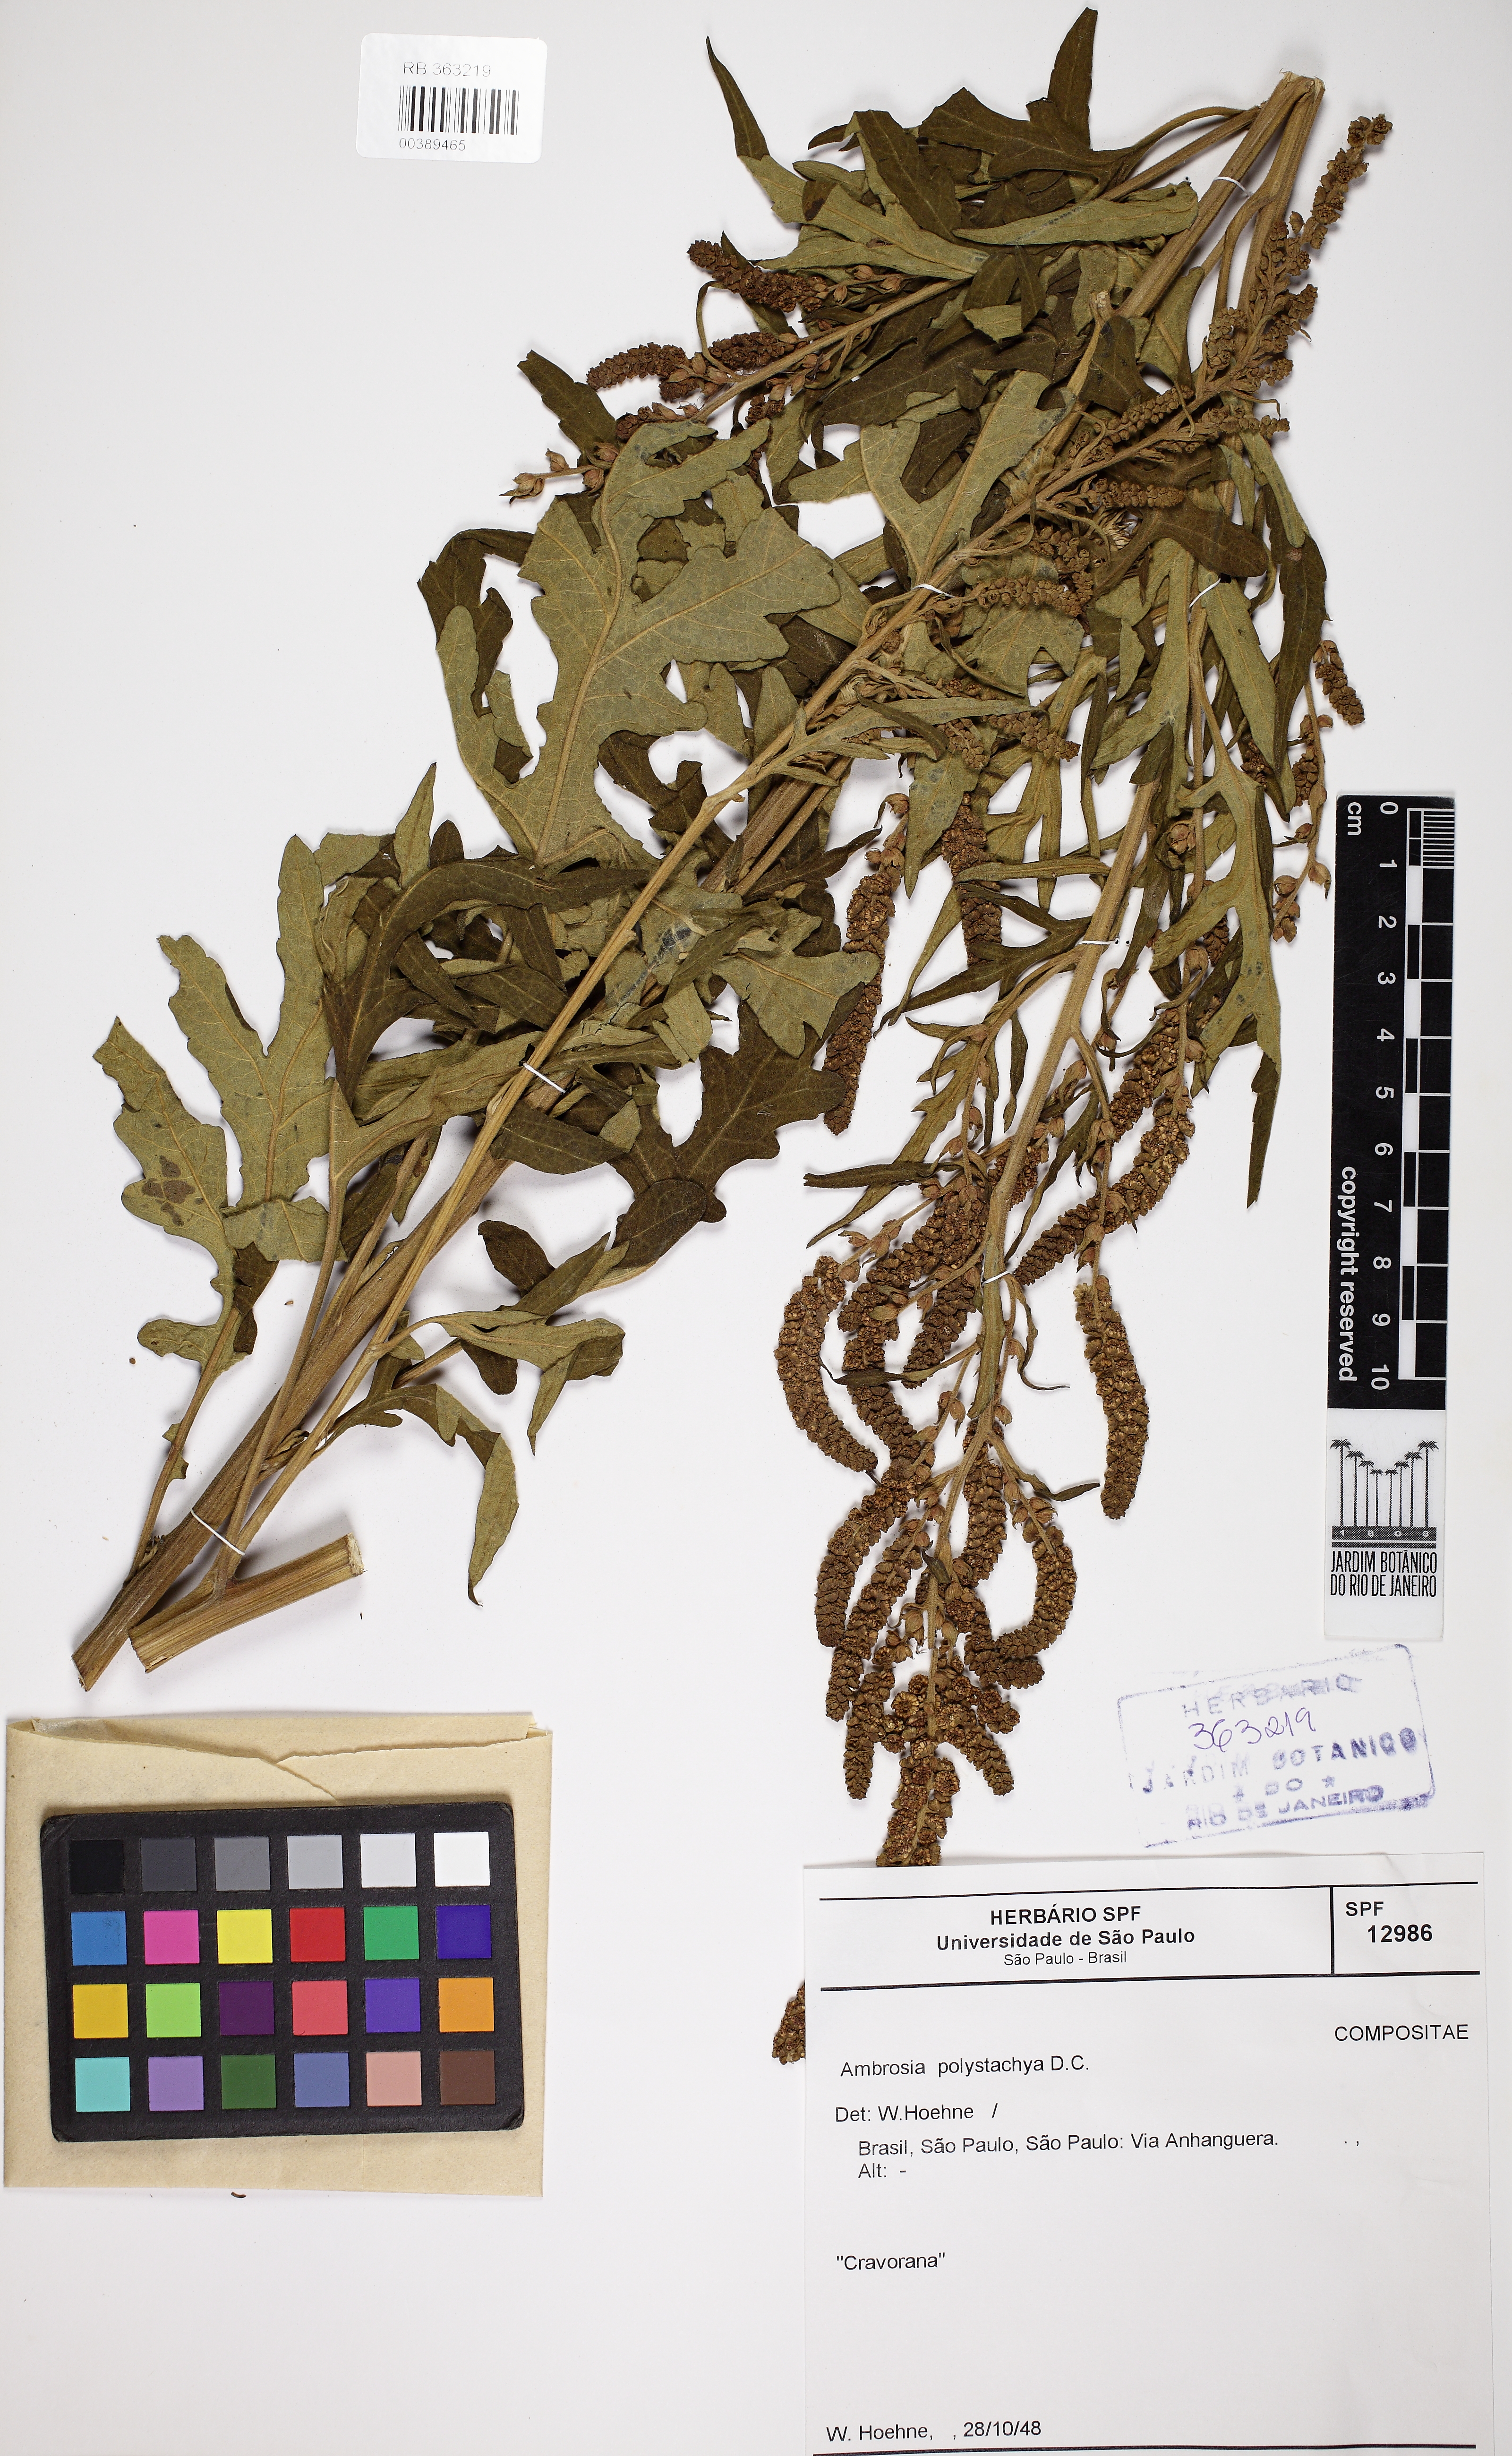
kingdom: Plantae
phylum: Tracheophyta
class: Magnoliopsida
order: Asterales
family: Asteraceae
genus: Ambrosia
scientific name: Ambrosia polystachya
